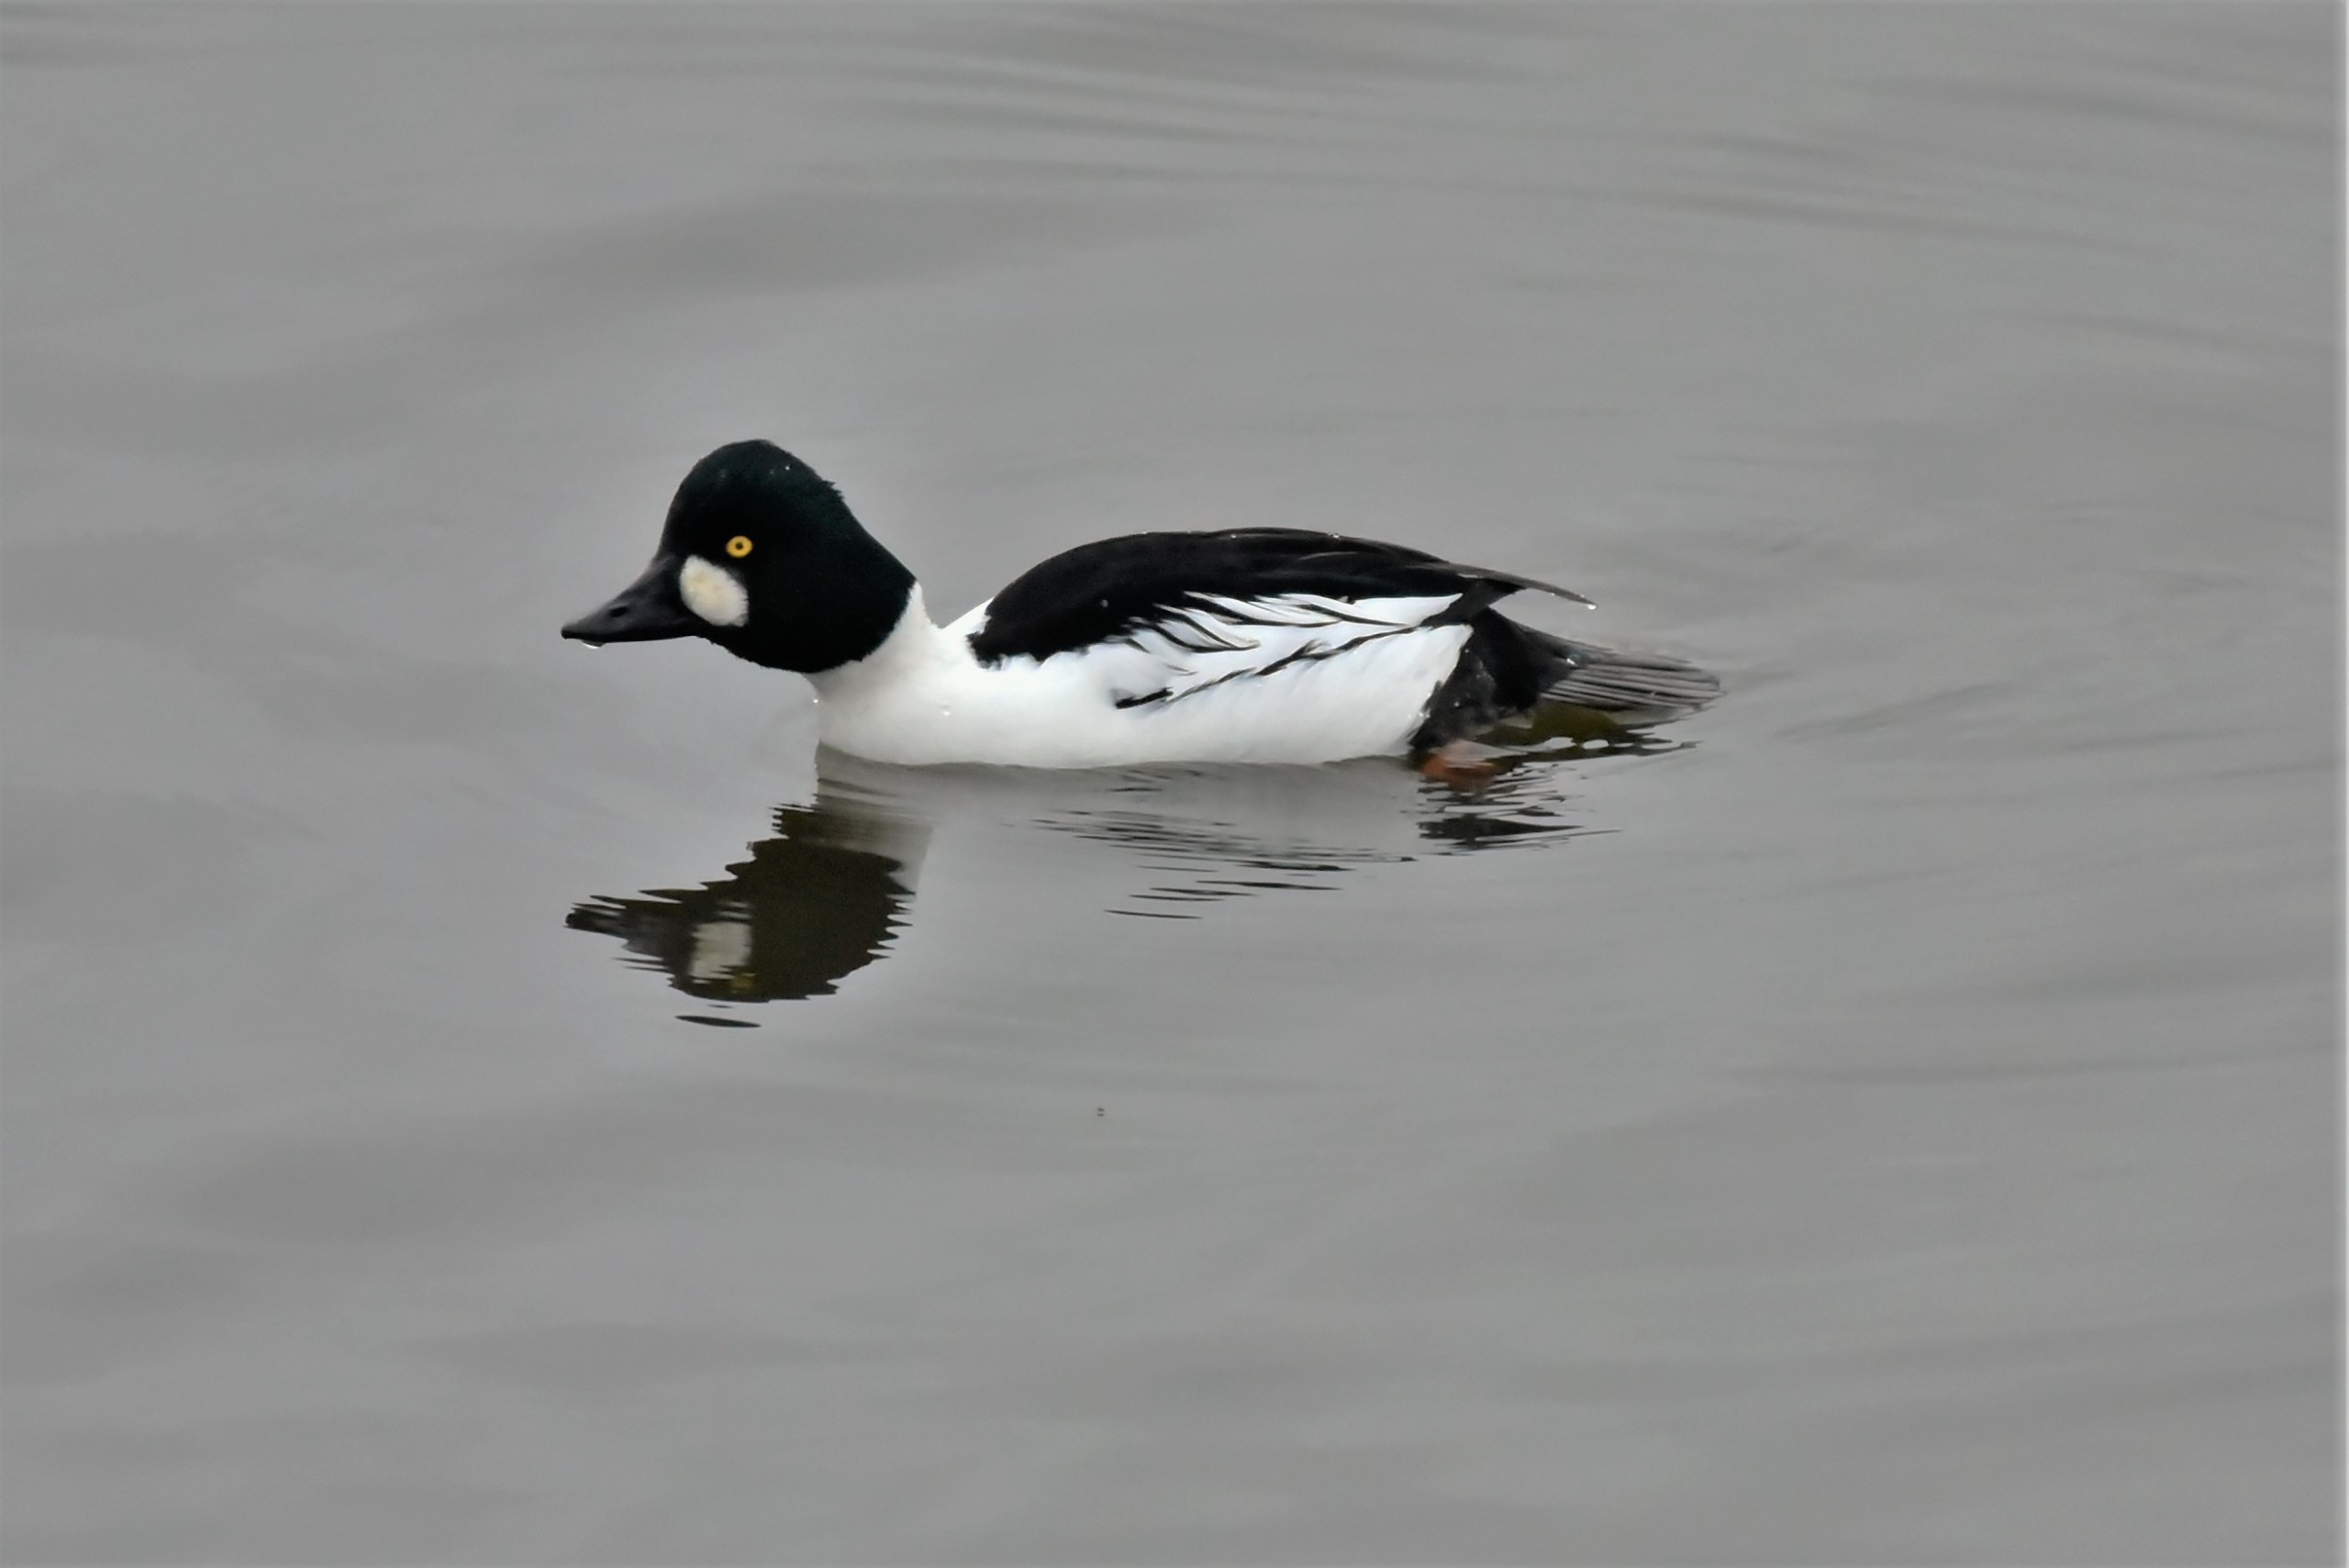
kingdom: Animalia
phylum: Chordata
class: Aves
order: Anseriformes
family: Anatidae
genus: Bucephala
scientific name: Bucephala clangula
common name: Hvinand
